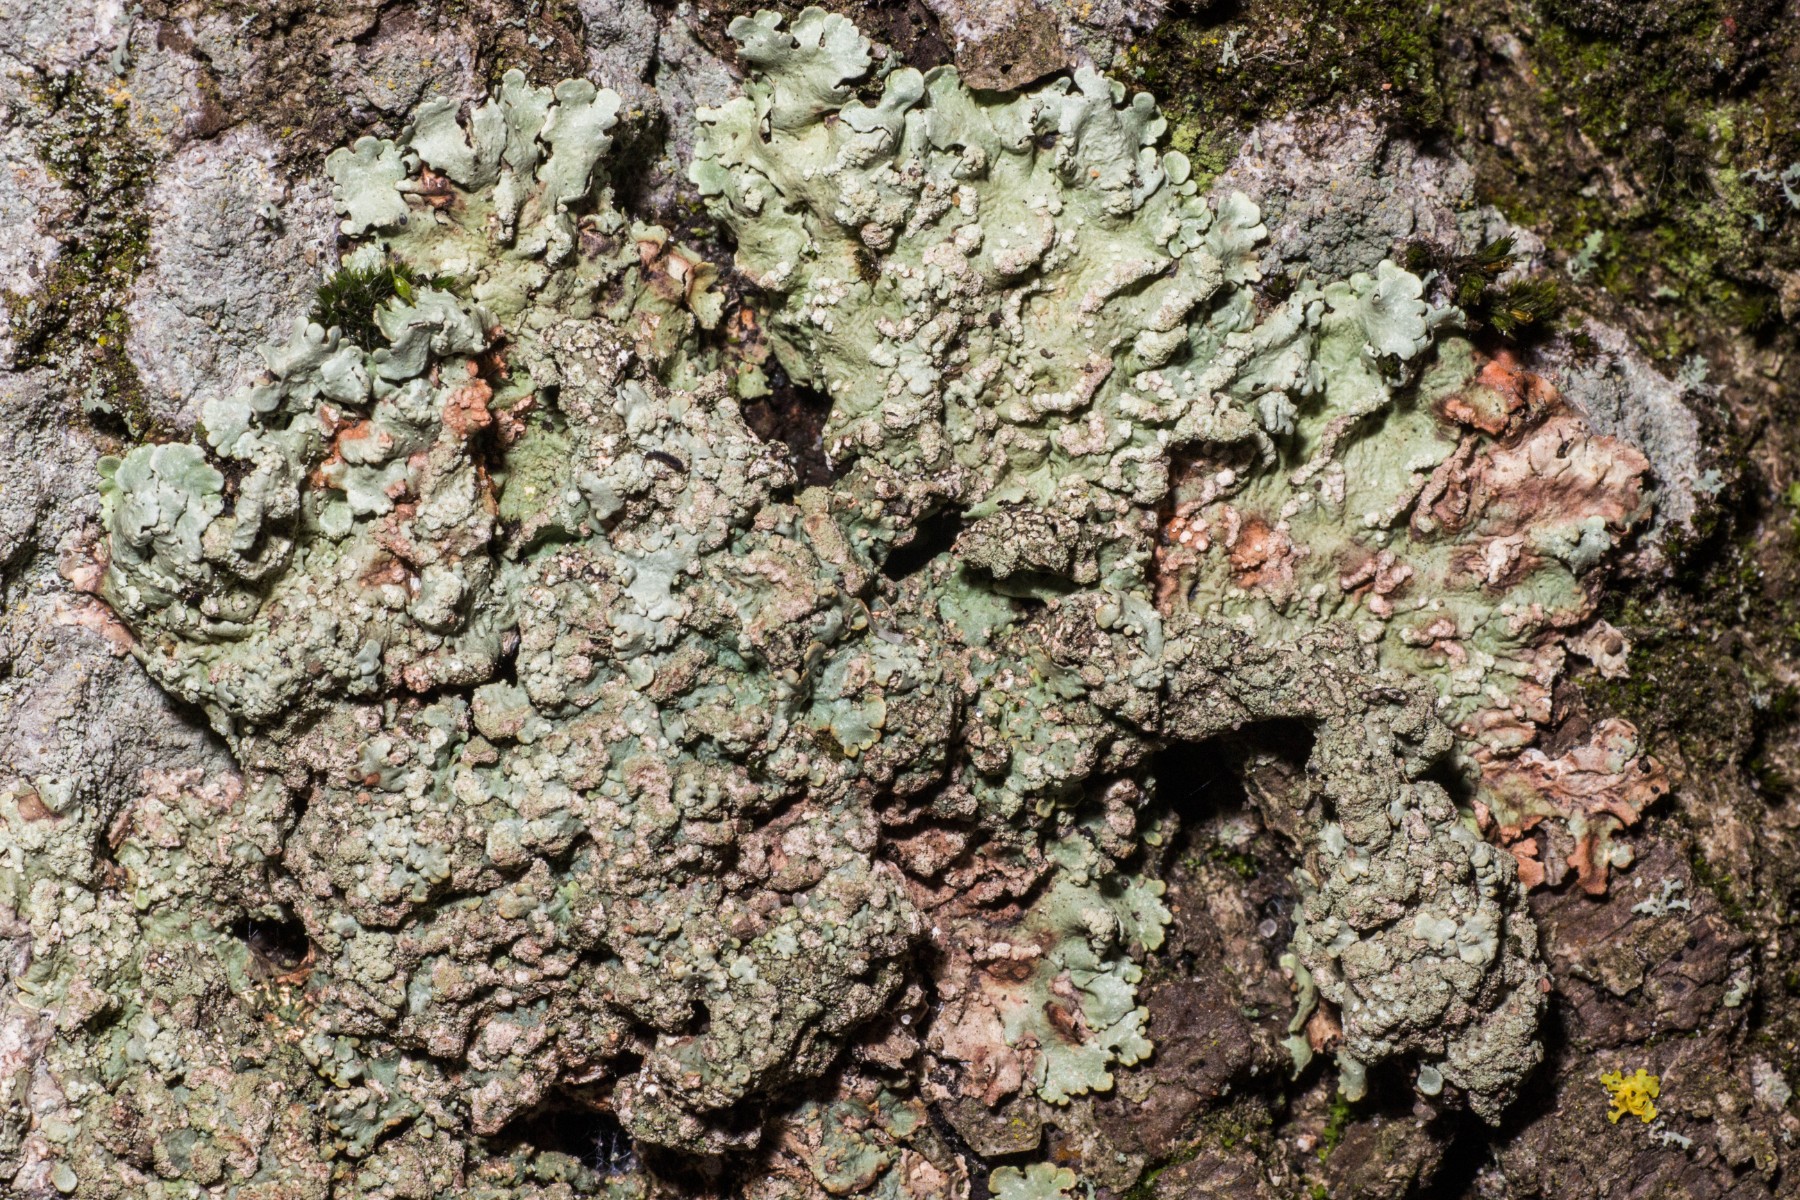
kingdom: Fungi
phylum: Ascomycota
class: Lecanoromycetes
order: Lecanorales
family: Parmeliaceae
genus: Flavoparmelia
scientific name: Flavoparmelia soredians
